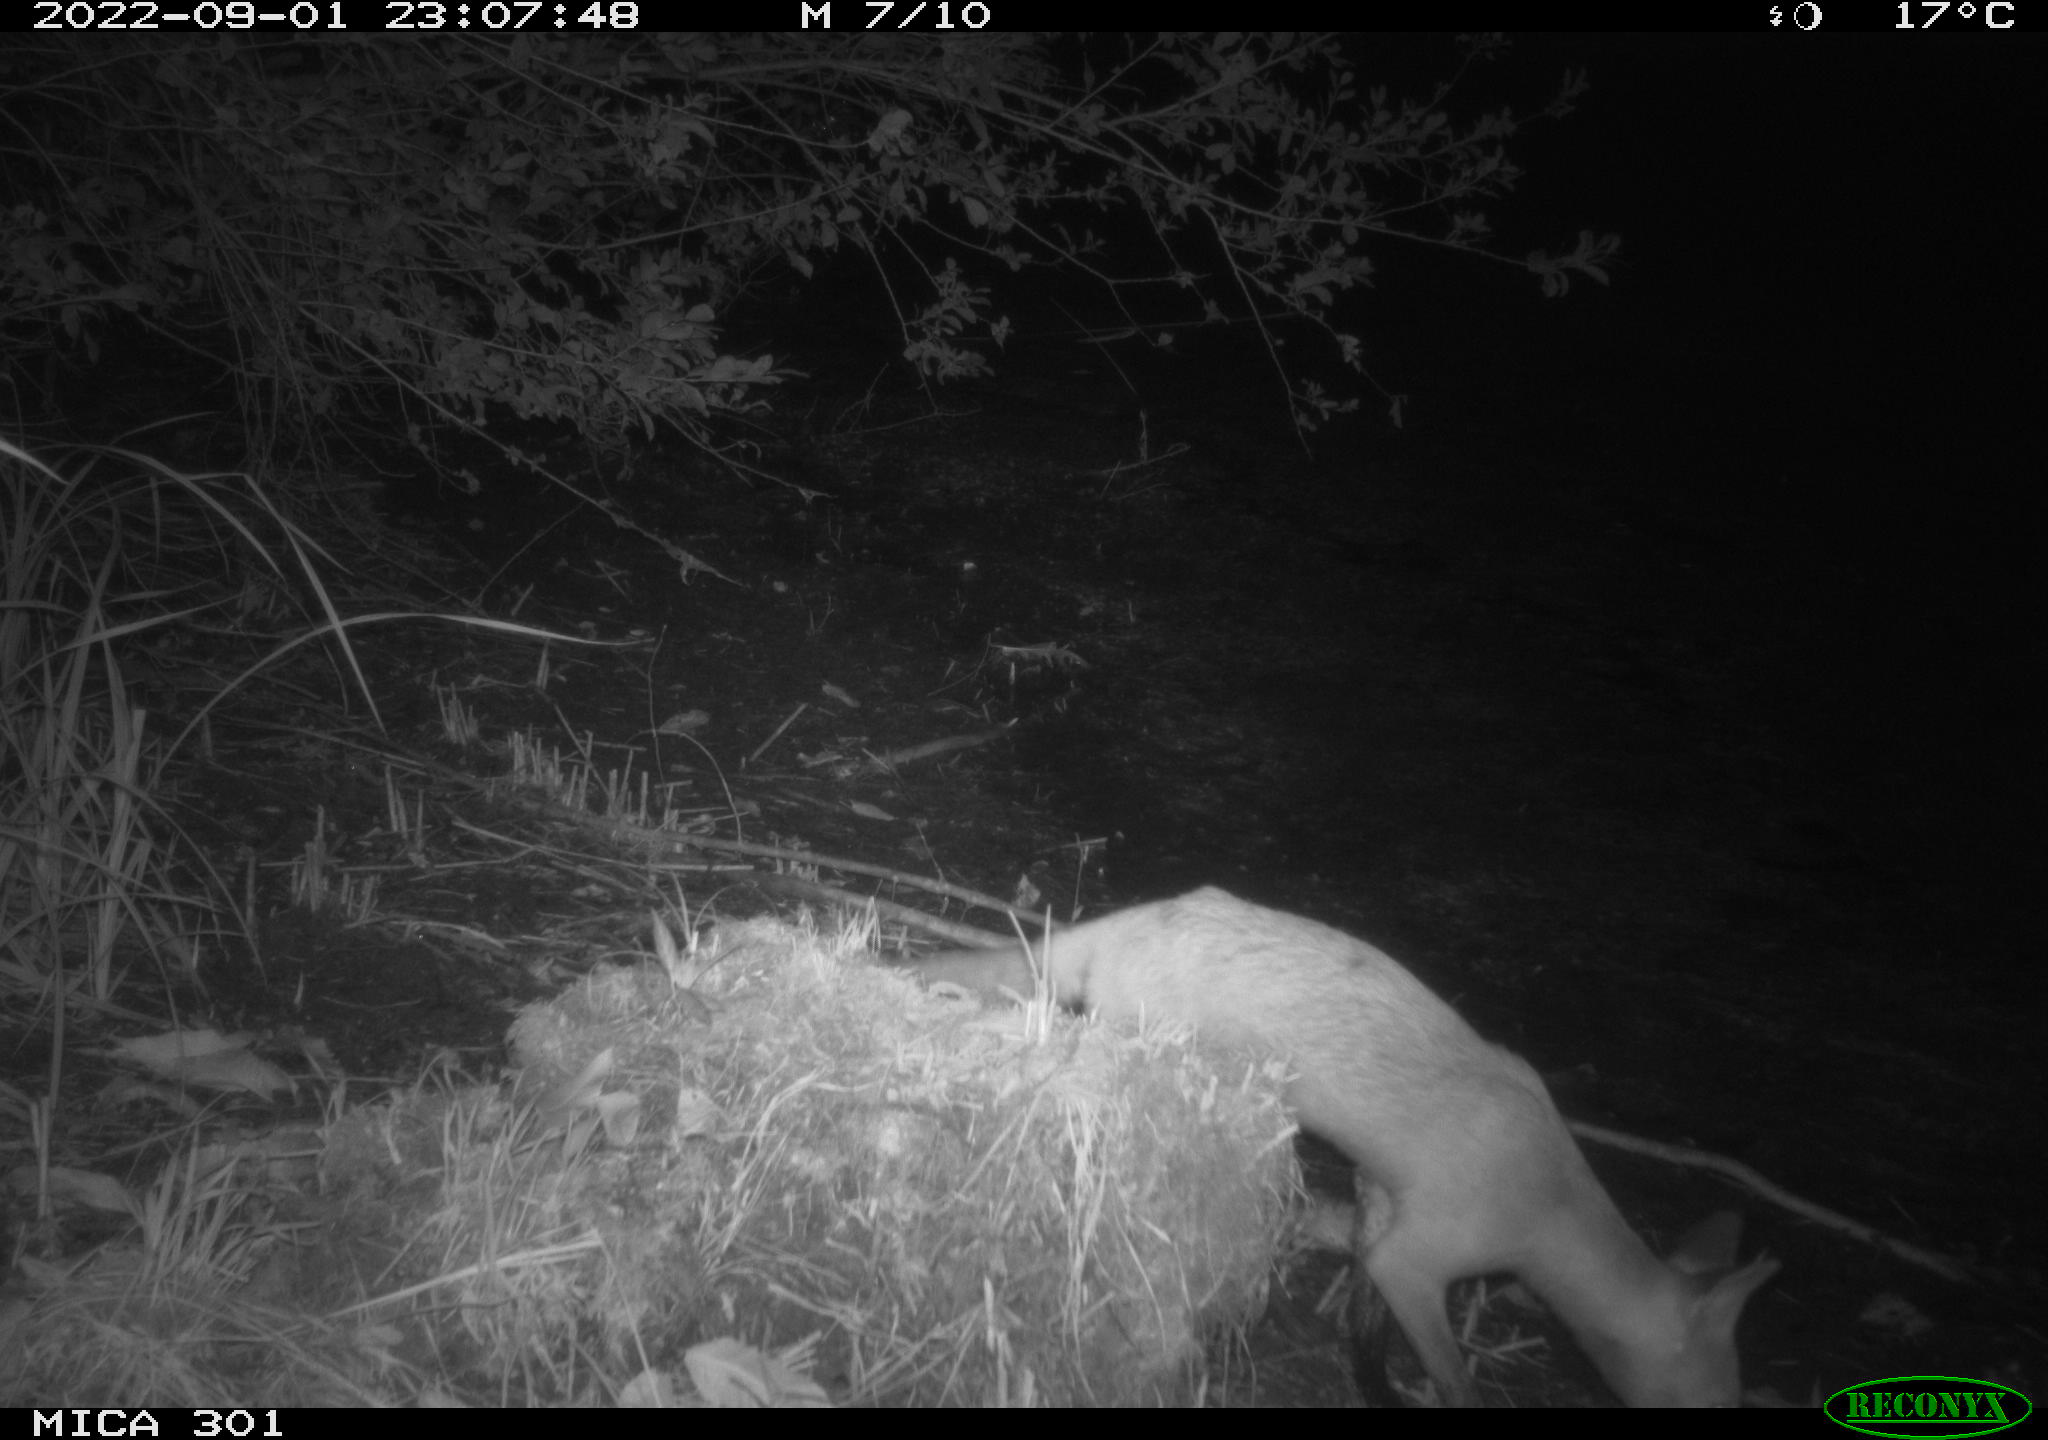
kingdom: Animalia
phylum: Chordata
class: Mammalia
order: Carnivora
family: Canidae
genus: Vulpes
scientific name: Vulpes vulpes
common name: Red fox
